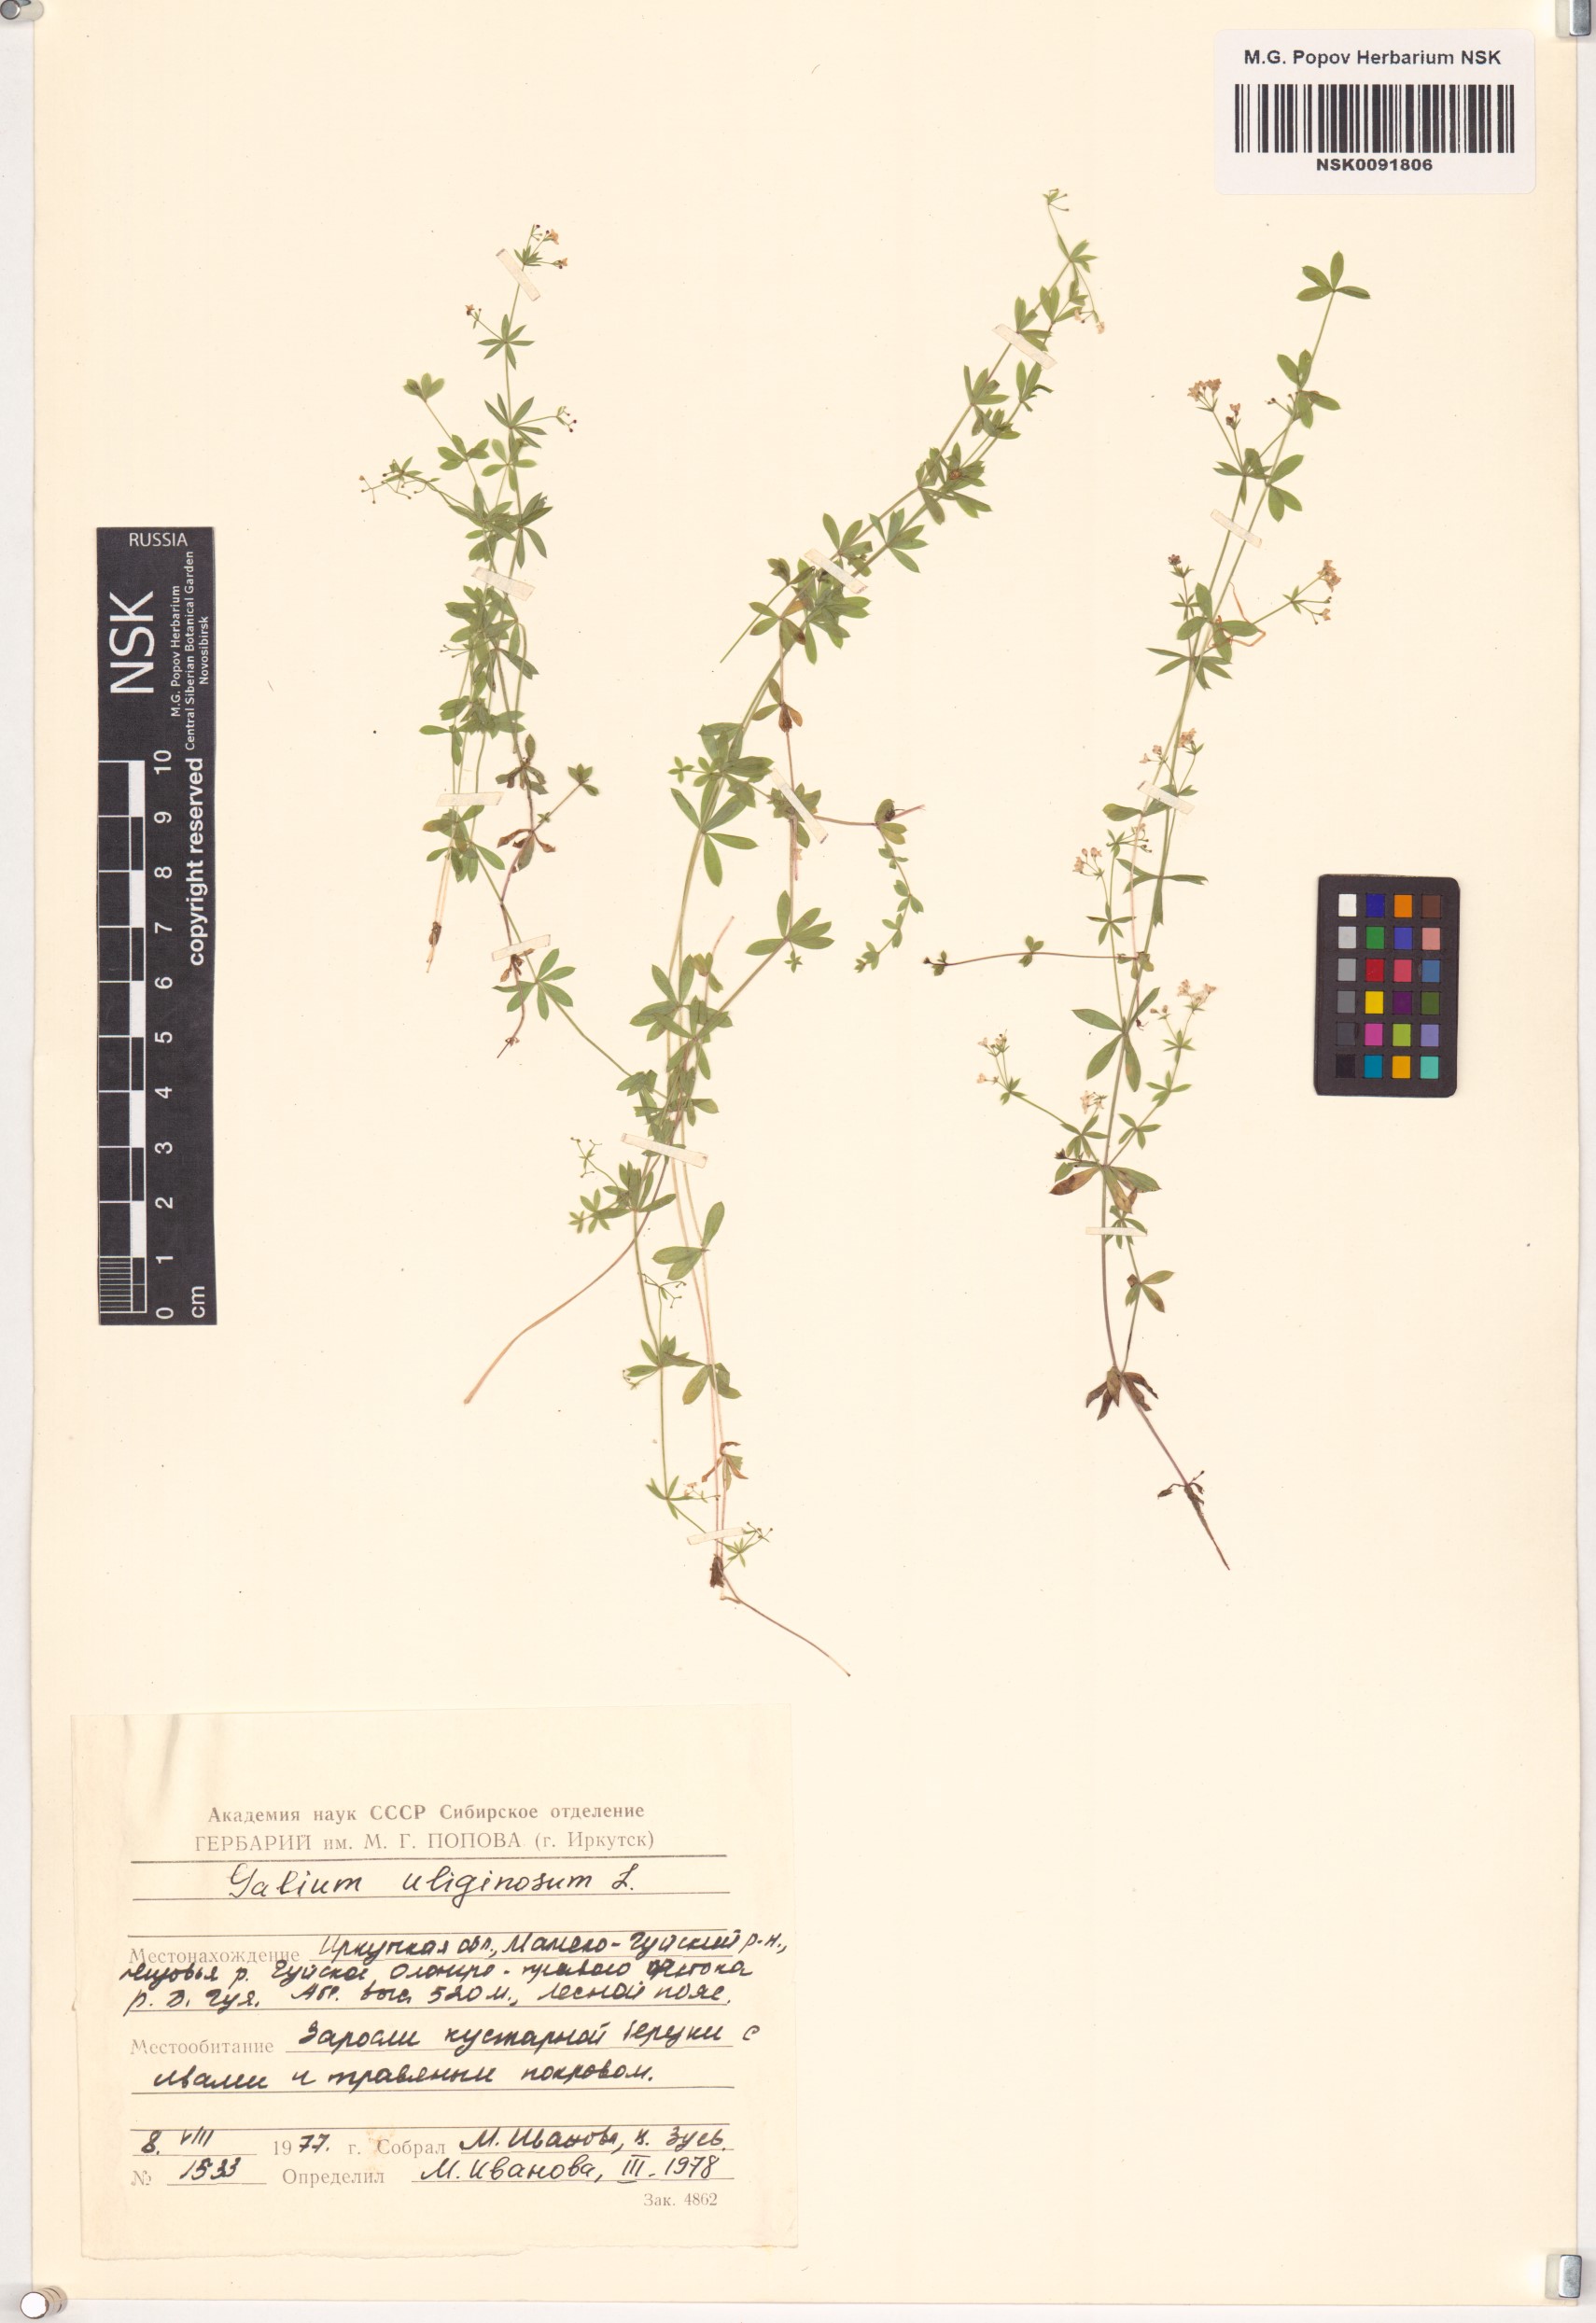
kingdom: Plantae
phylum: Tracheophyta
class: Magnoliopsida
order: Gentianales
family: Rubiaceae
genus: Galium
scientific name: Galium uliginosum
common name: Fen bedstraw
